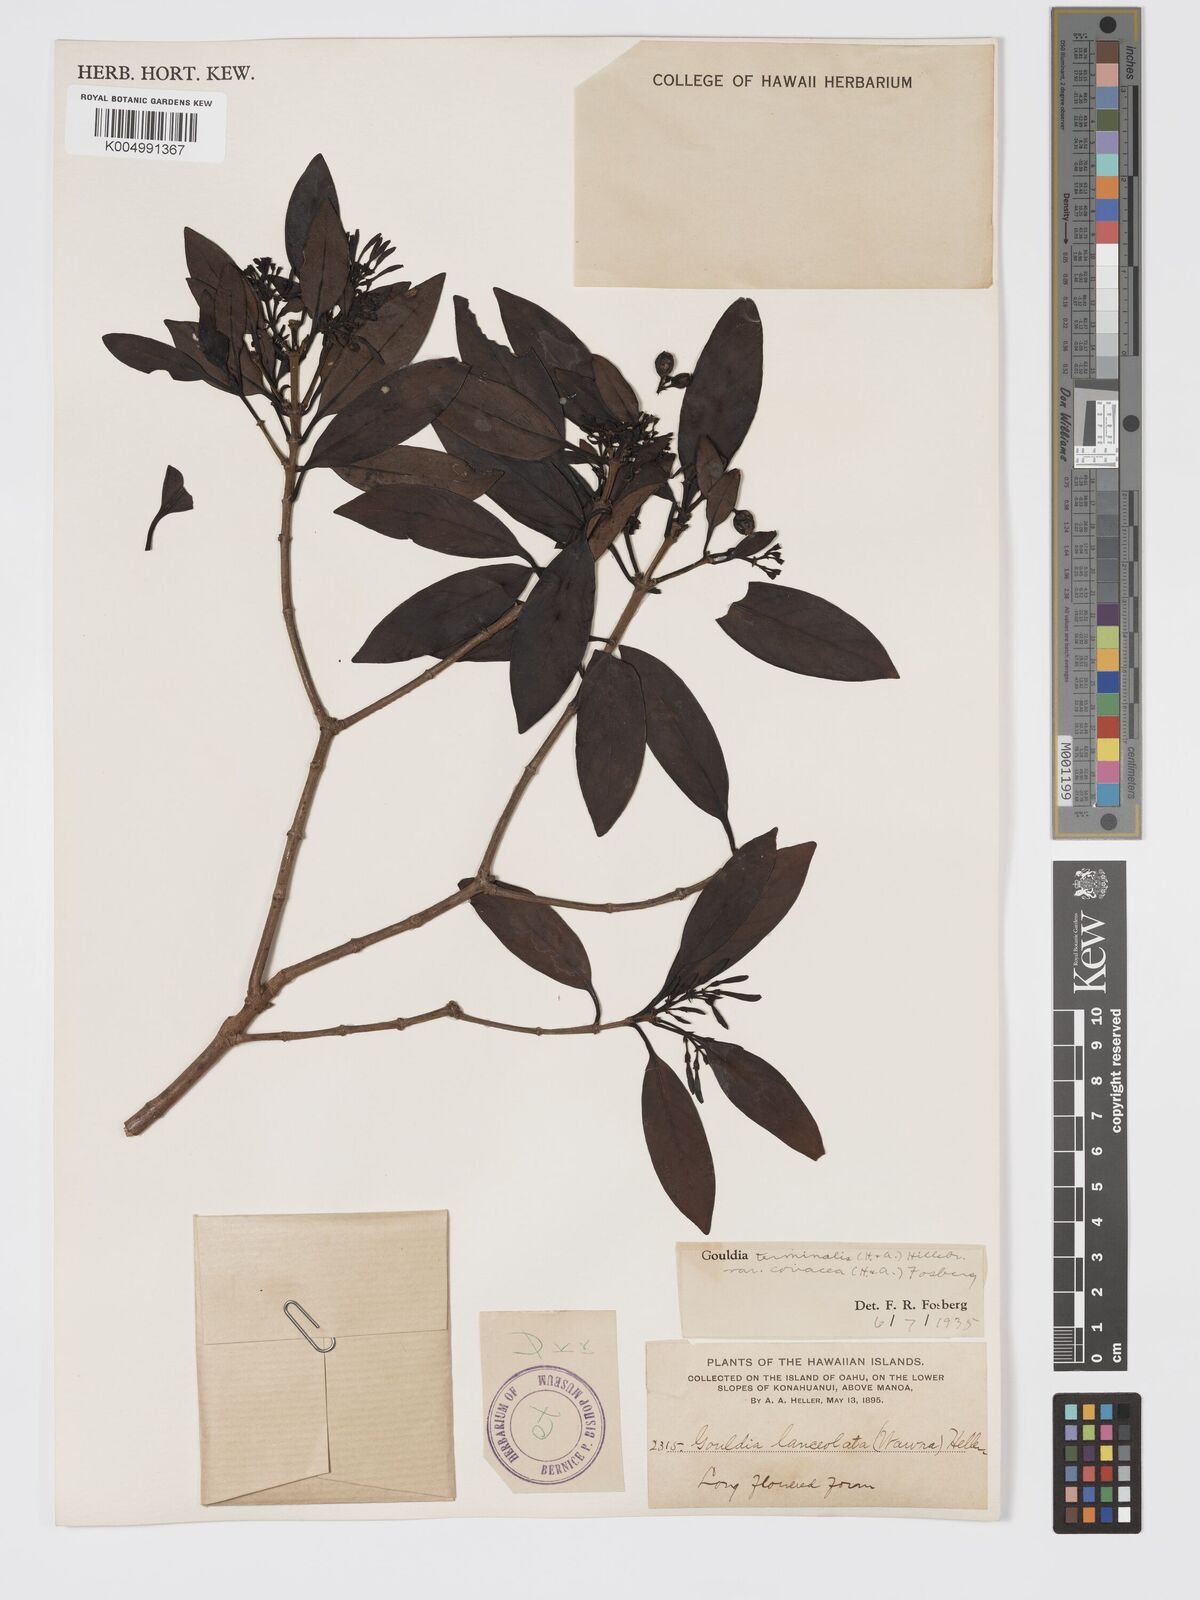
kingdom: Plantae
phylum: Tracheophyta
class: Magnoliopsida
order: Gentianales
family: Rubiaceae
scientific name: Rubiaceae
